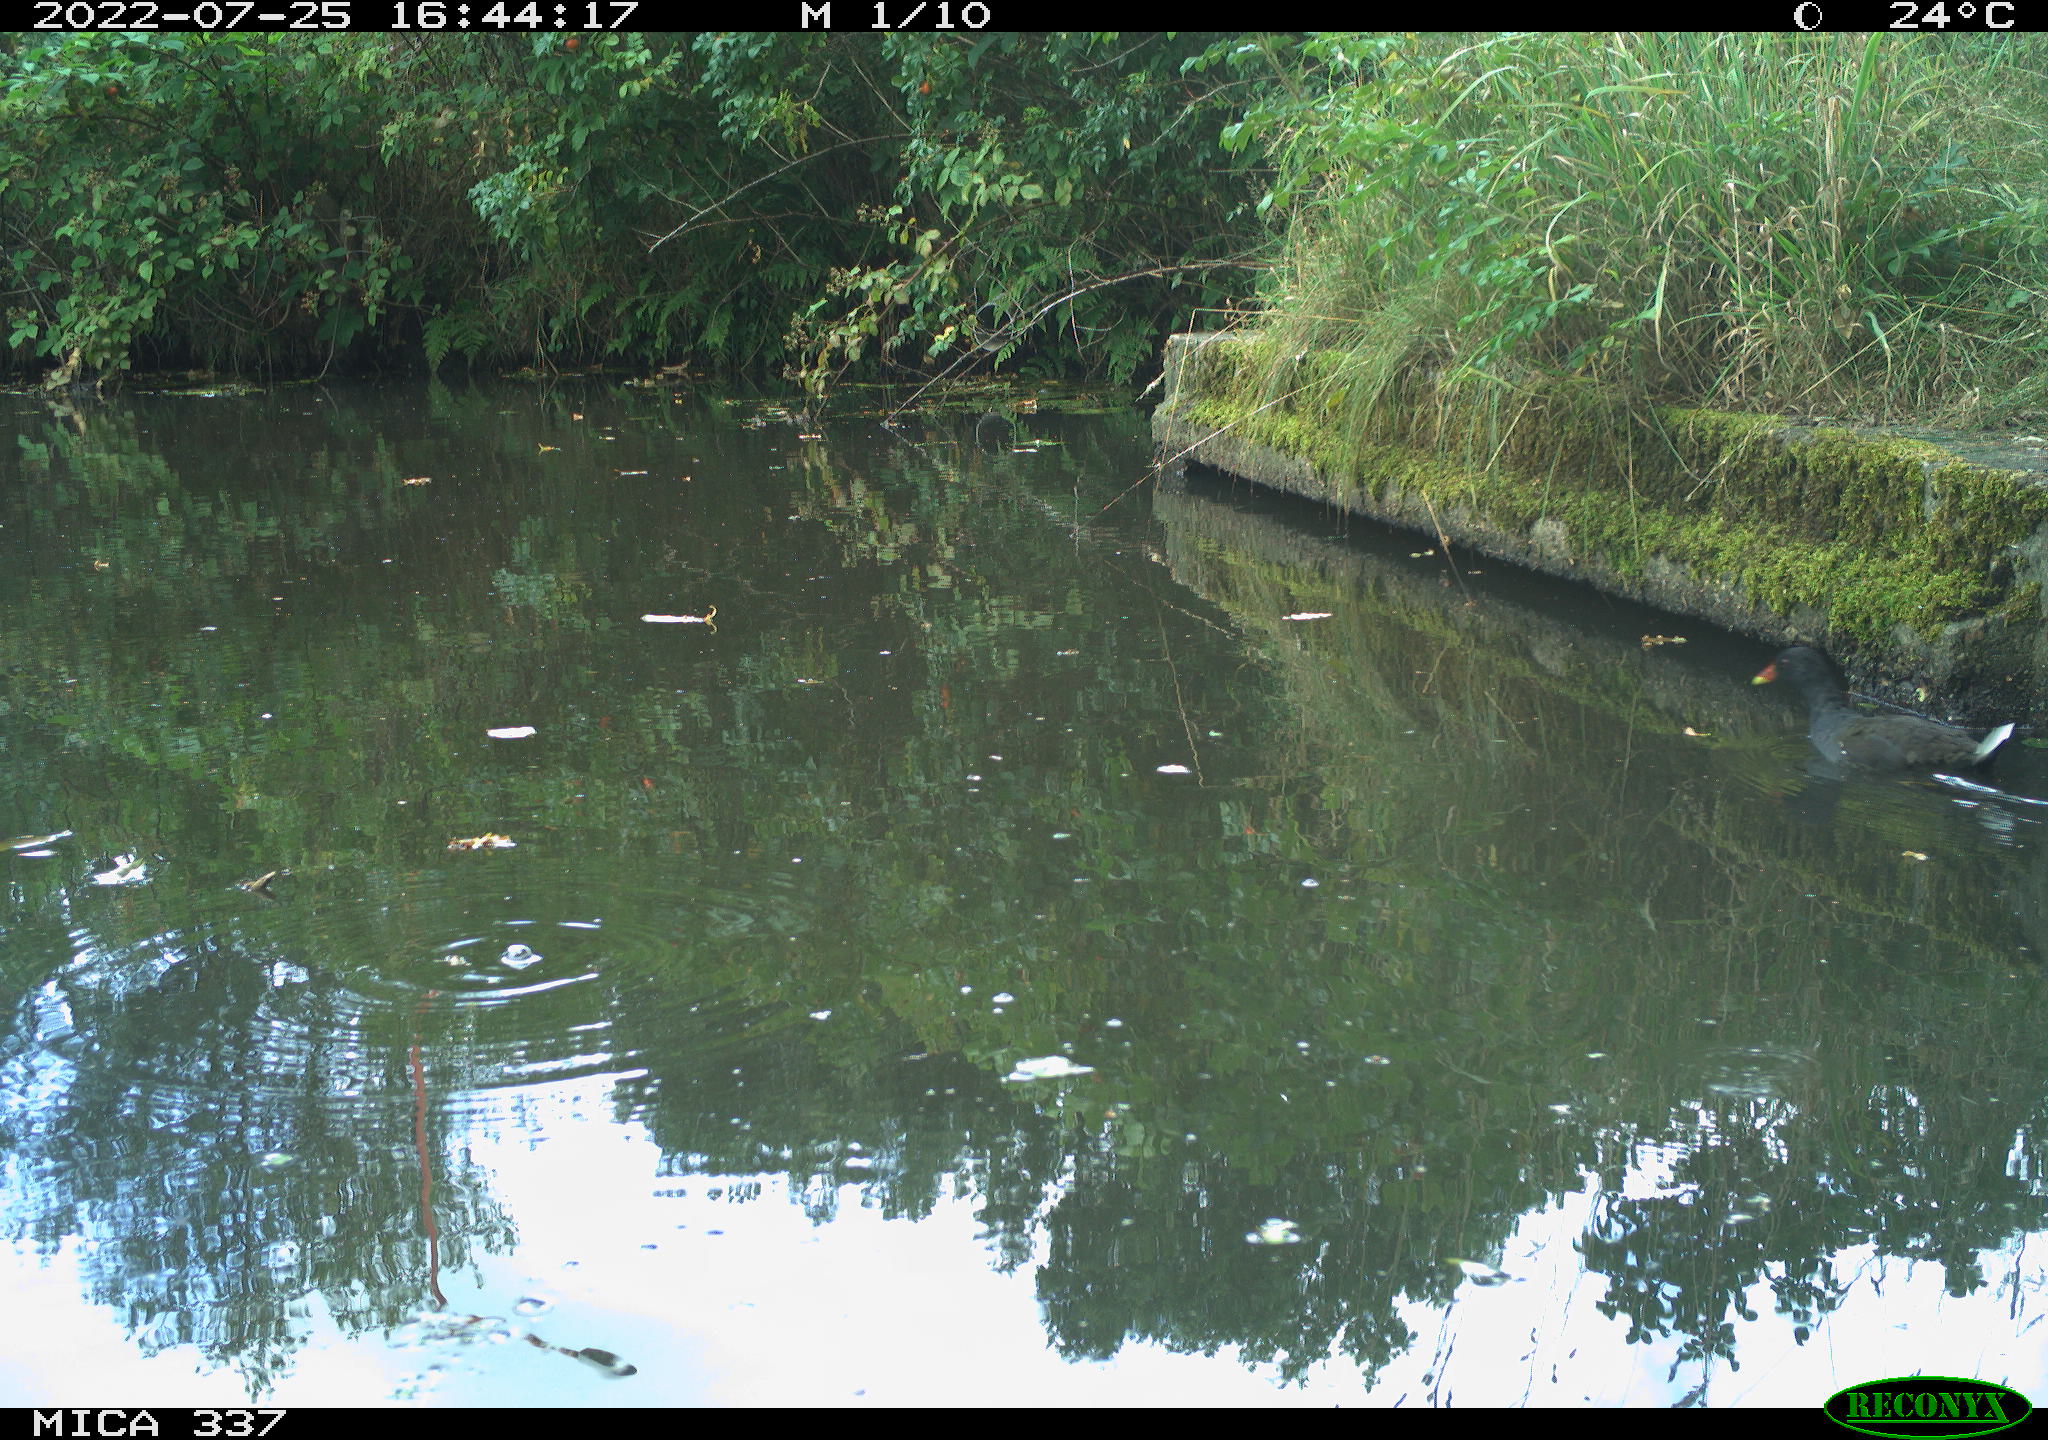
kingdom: Animalia
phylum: Chordata
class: Aves
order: Gruiformes
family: Rallidae
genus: Gallinula
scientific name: Gallinula chloropus
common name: Common moorhen
